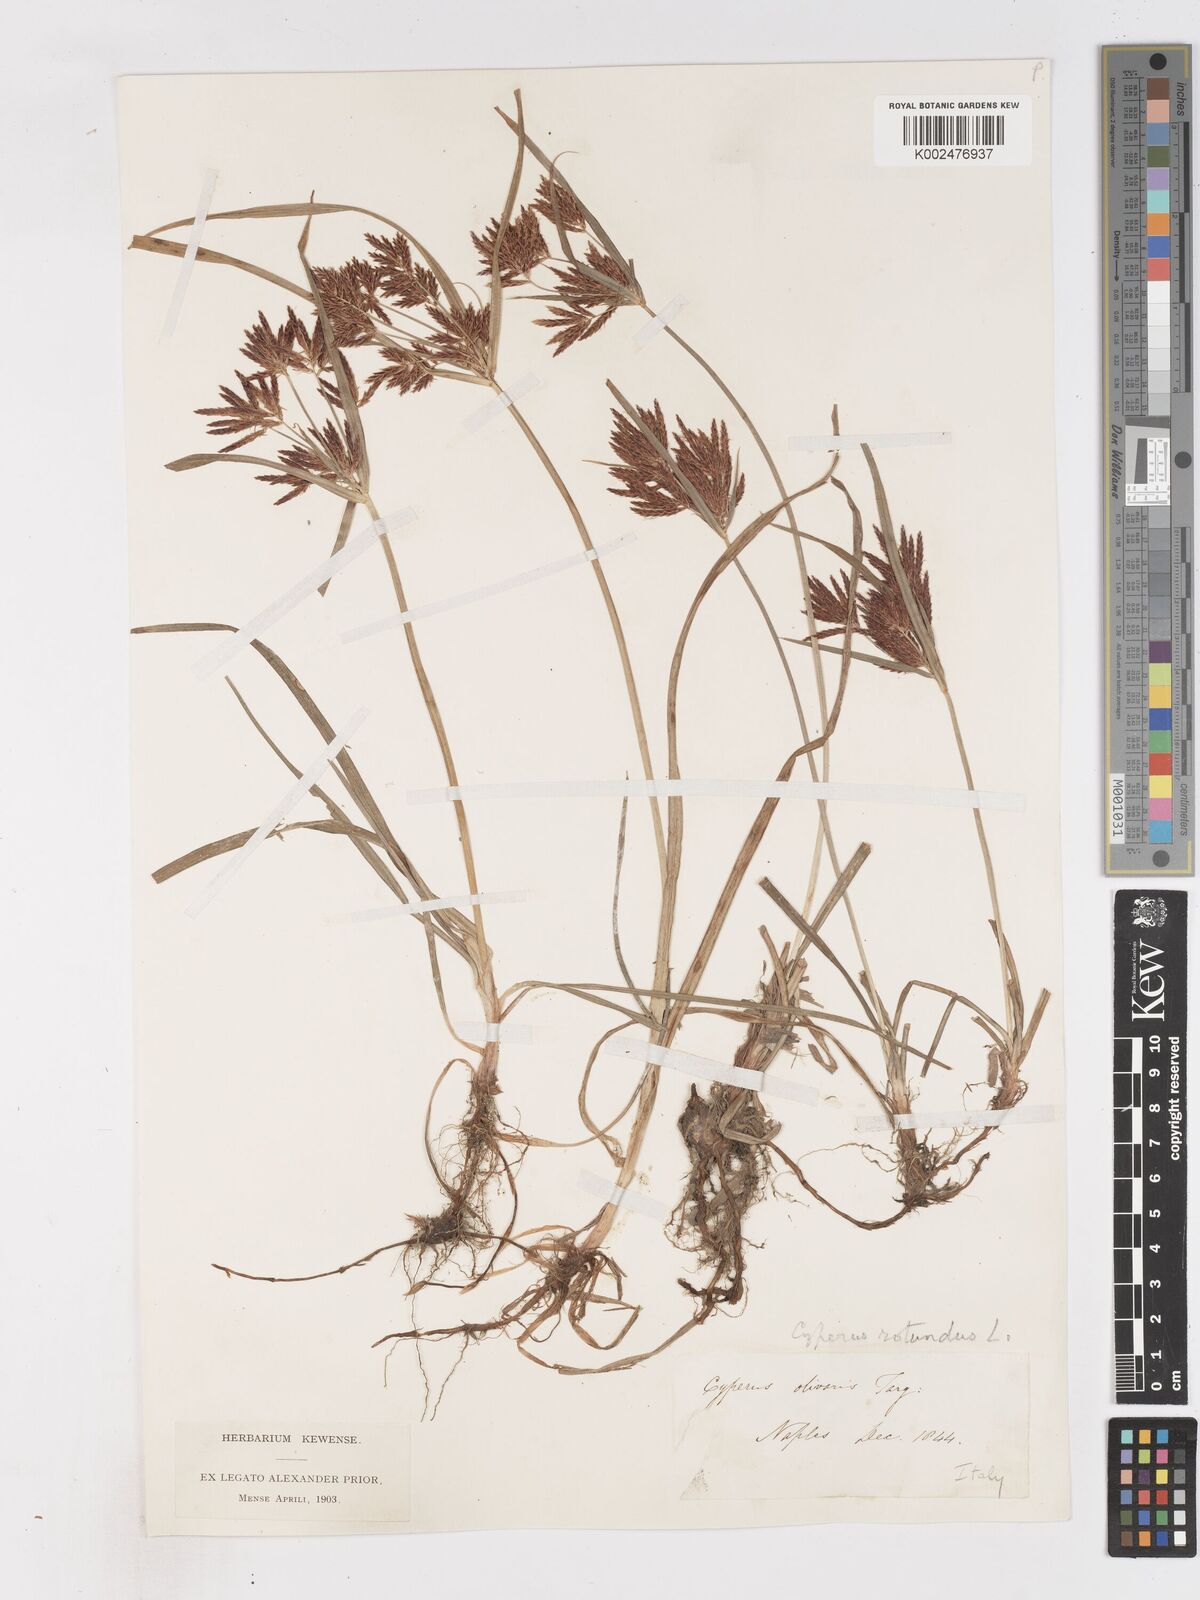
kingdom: Plantae
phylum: Tracheophyta
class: Liliopsida
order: Poales
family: Cyperaceae
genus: Cyperus
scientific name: Cyperus rotundus
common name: Nutgrass
